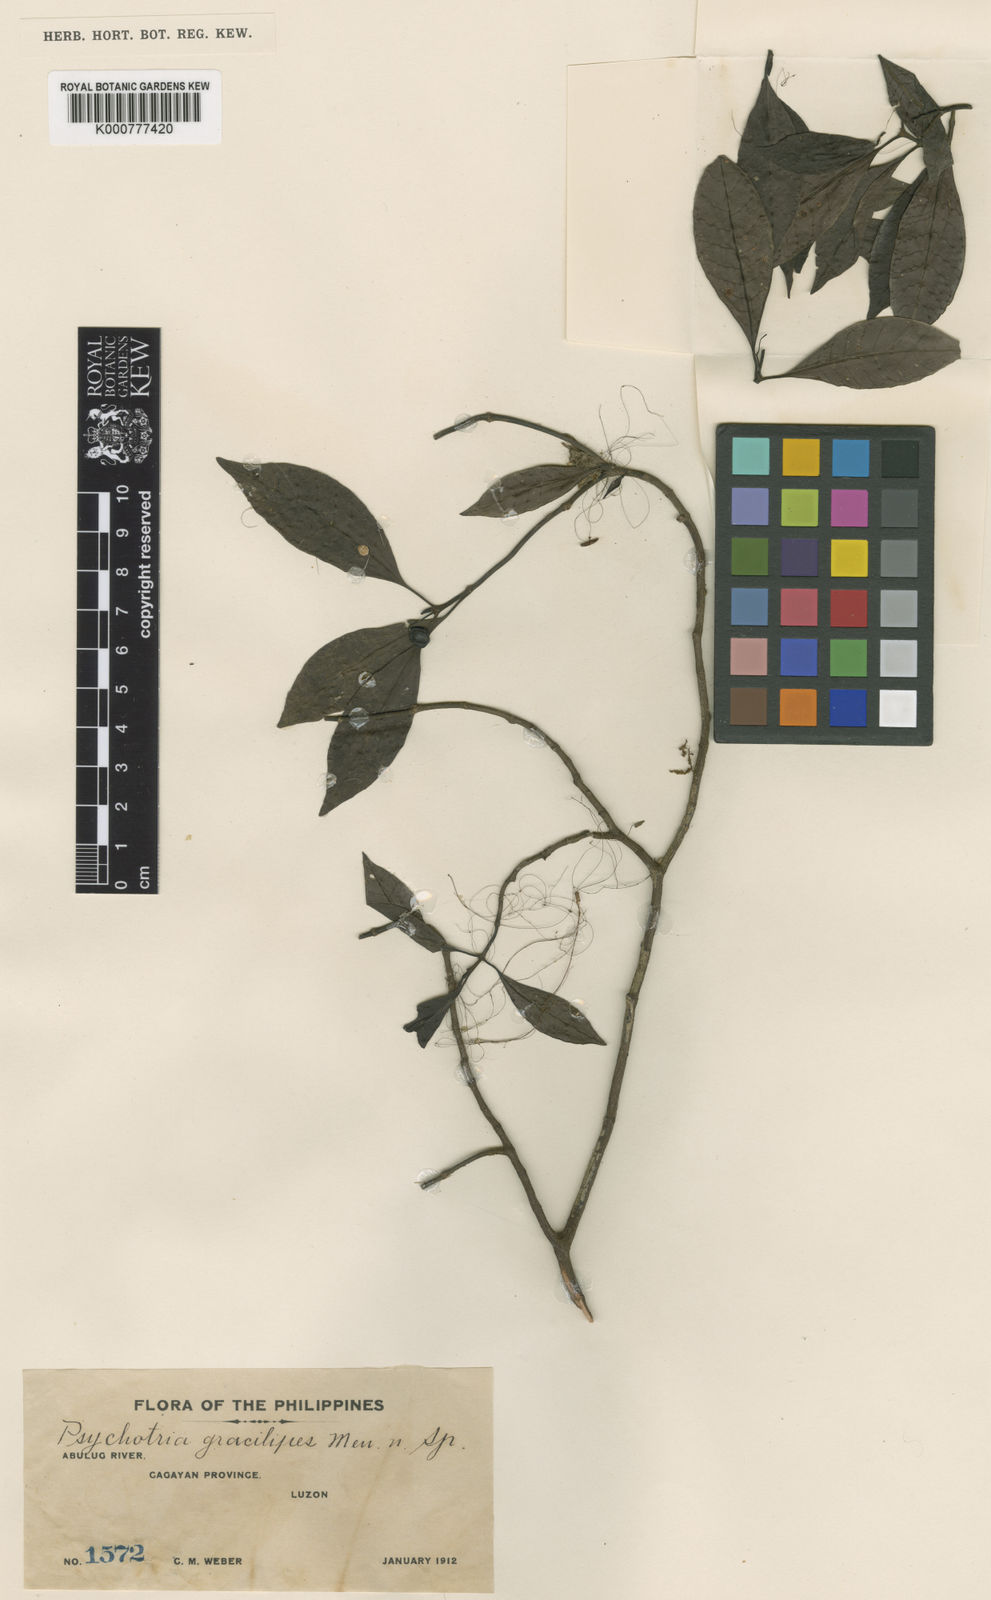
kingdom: Plantae
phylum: Tracheophyta
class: Magnoliopsida
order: Gentianales
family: Rubiaceae
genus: Psychotria
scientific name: Psychotria gracilipes
